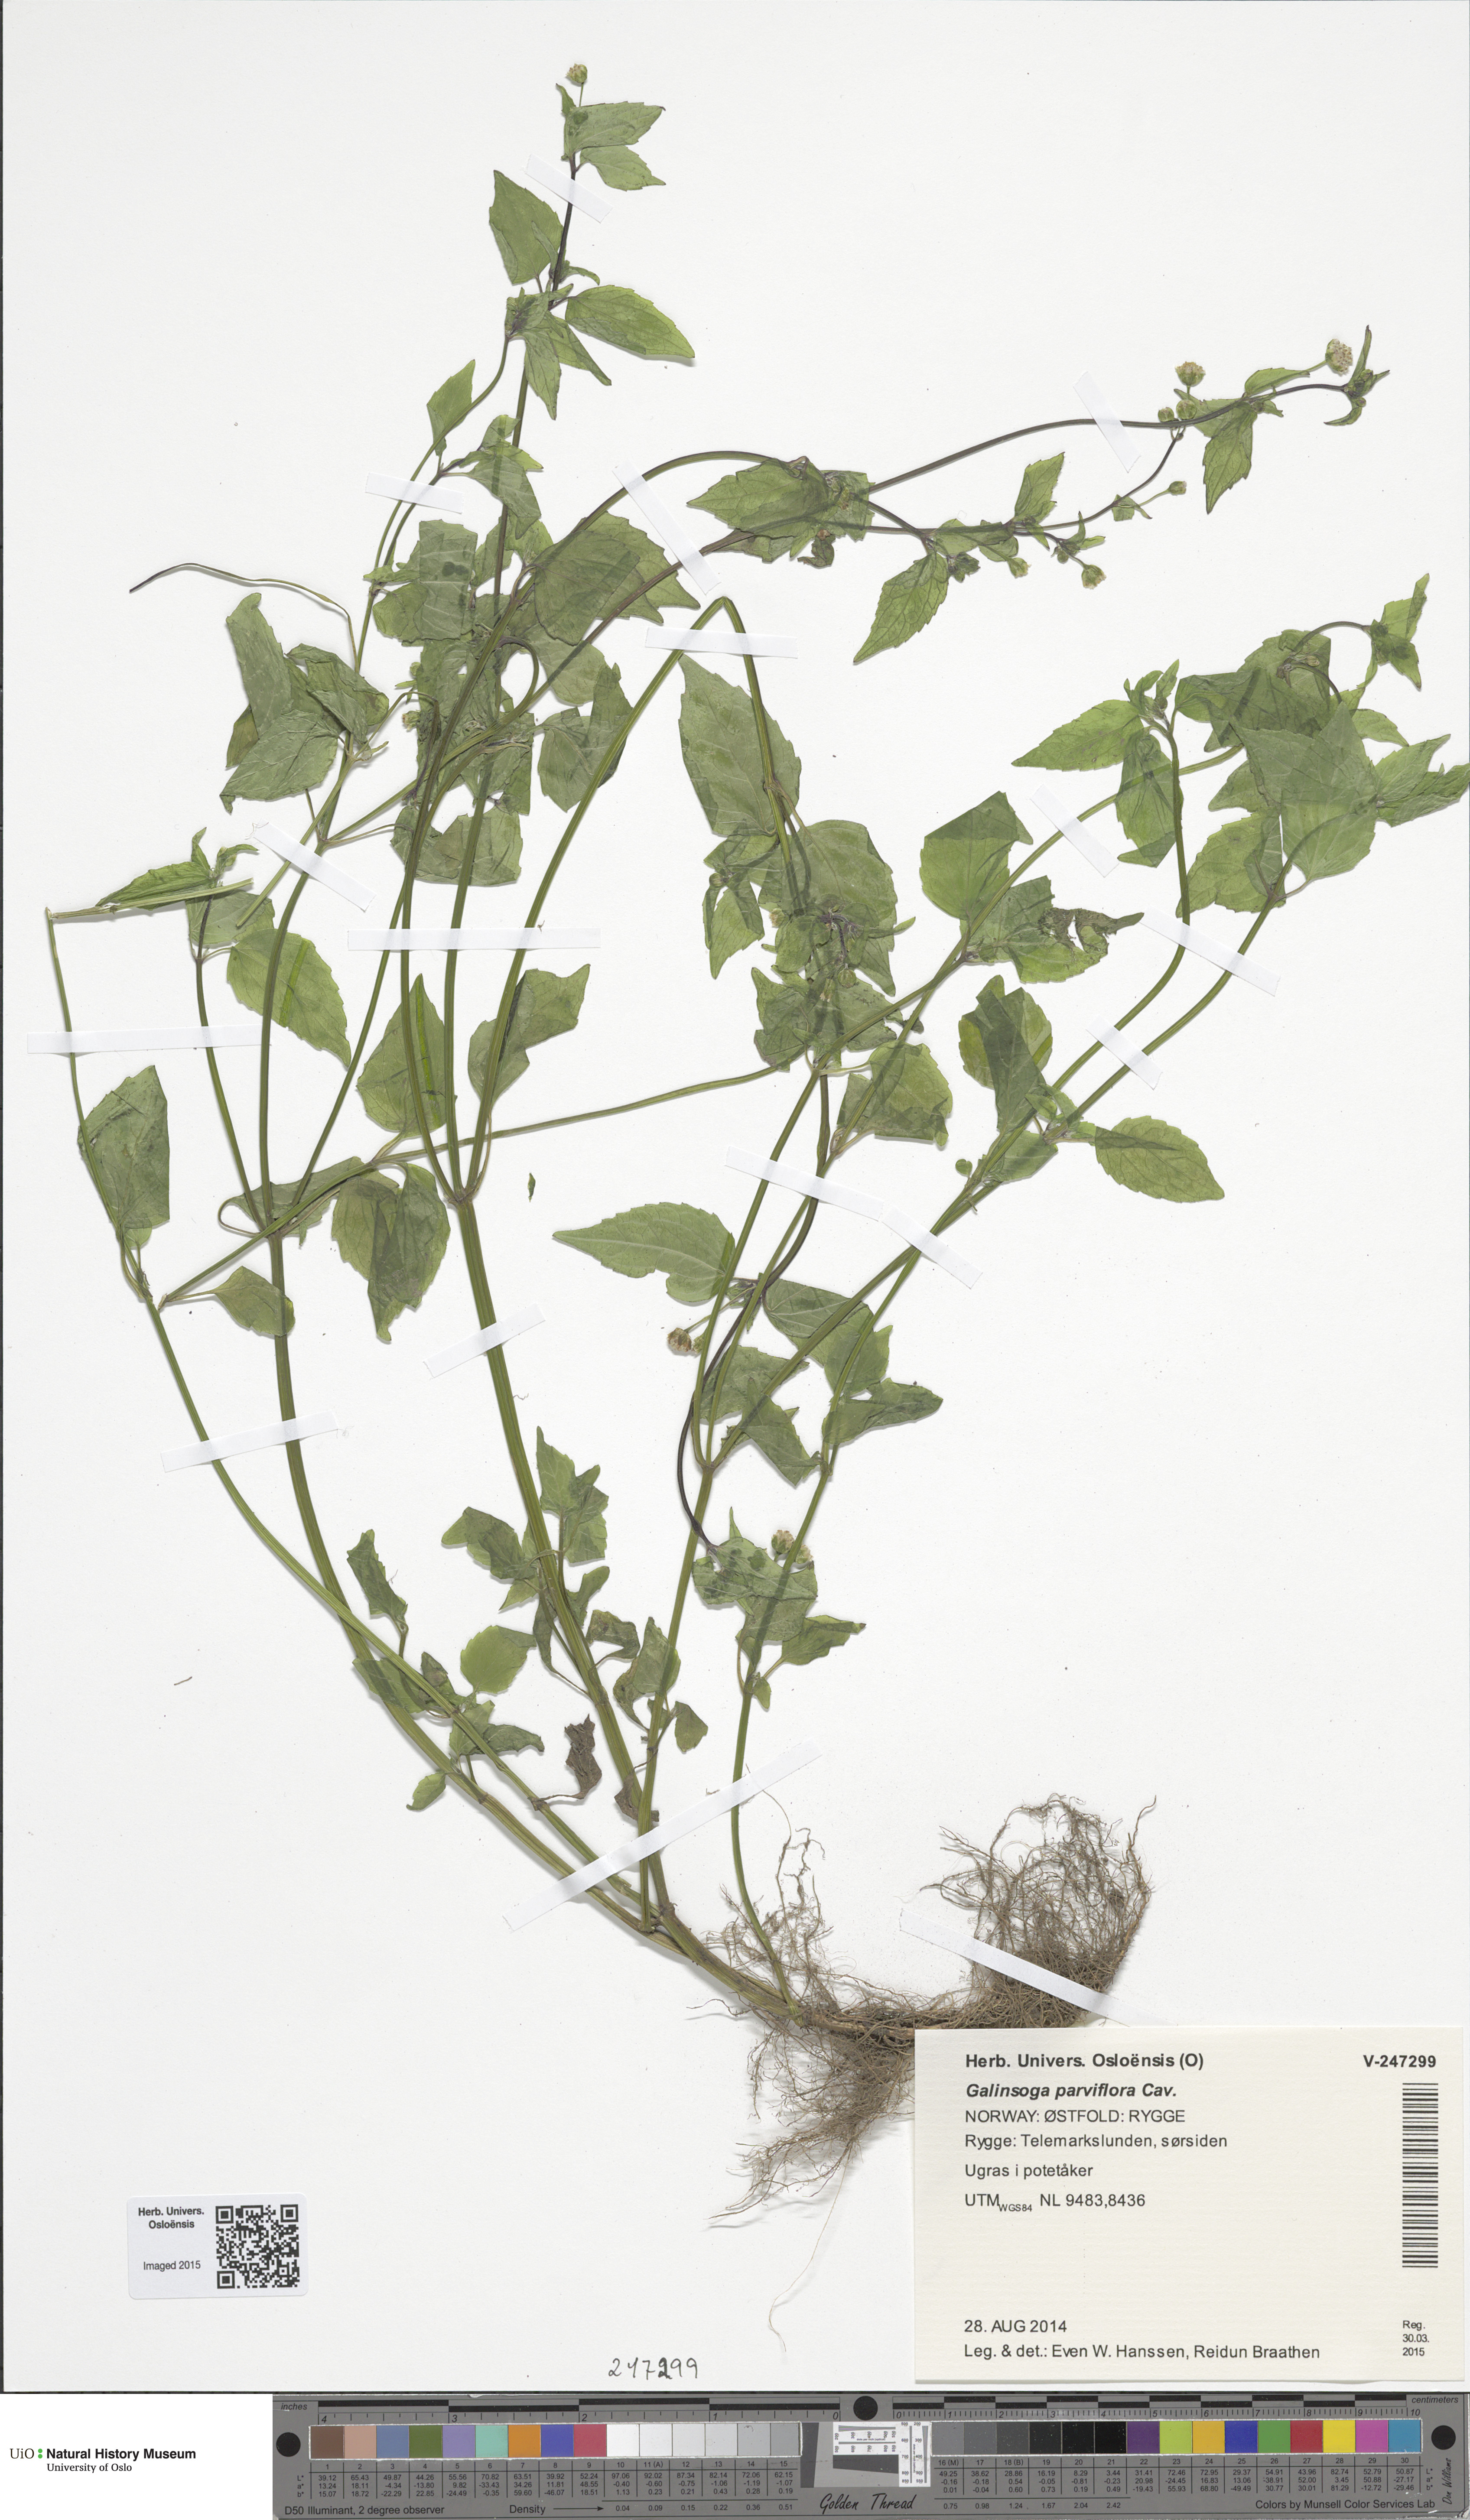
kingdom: Plantae
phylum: Tracheophyta
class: Magnoliopsida
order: Asterales
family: Asteraceae
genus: Galinsoga
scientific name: Galinsoga parviflora
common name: Gallant soldier
